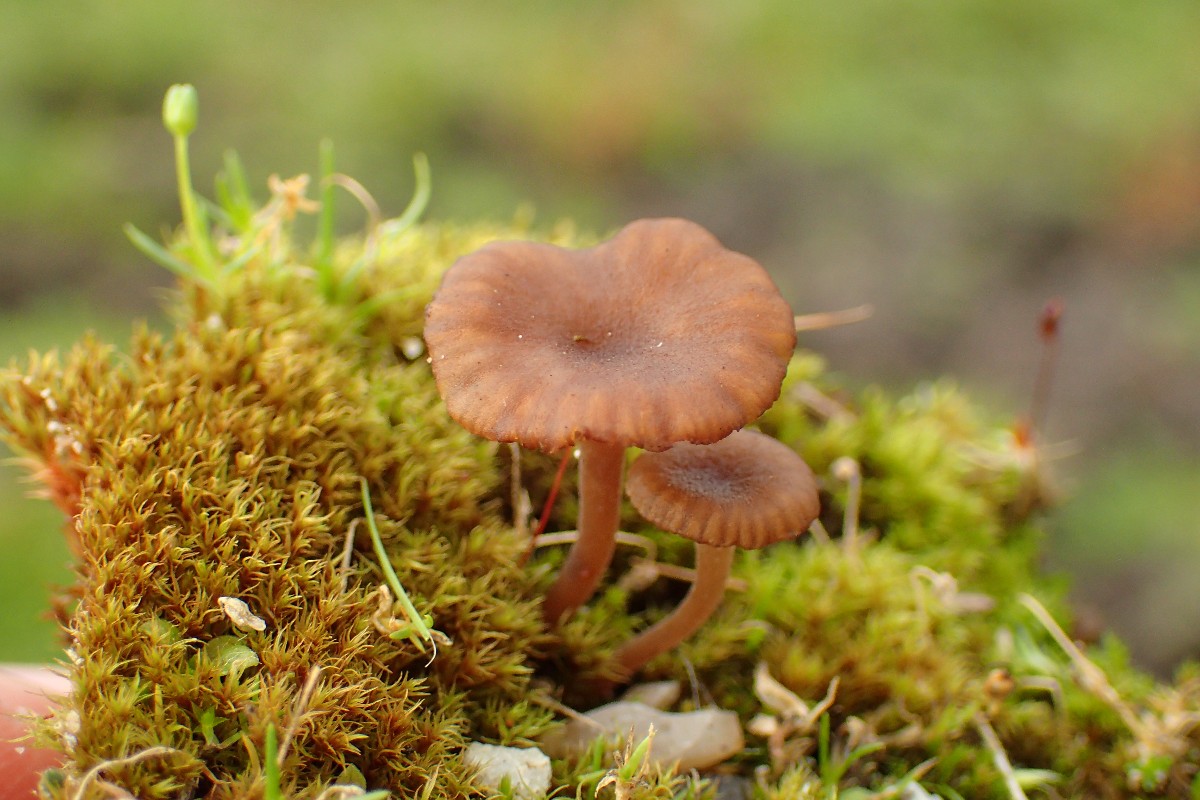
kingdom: Fungi
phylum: Basidiomycota
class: Agaricomycetes
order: Agaricales
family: Tricholomataceae
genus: Omphalina
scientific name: Omphalina pyxidata
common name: rødbrun navlehat
